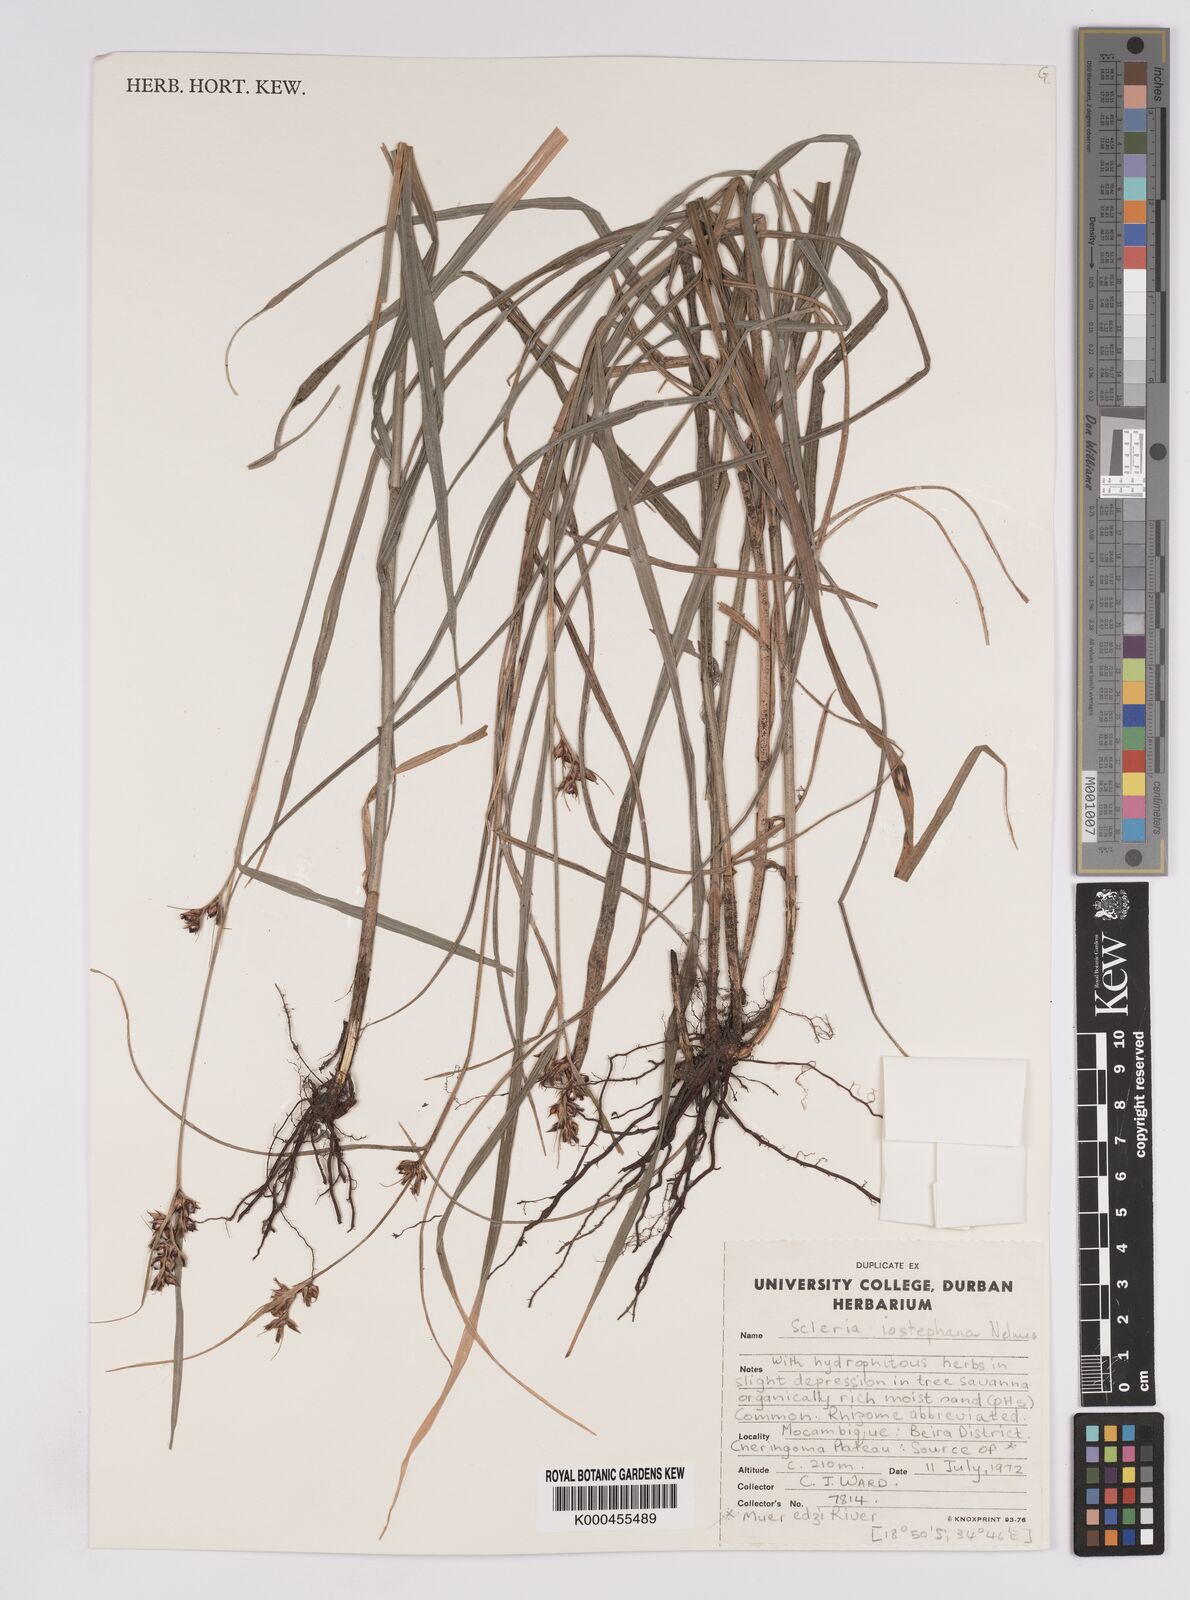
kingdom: Plantae
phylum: Tracheophyta
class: Liliopsida
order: Poales
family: Cyperaceae
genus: Scleria
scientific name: Scleria iostephana
